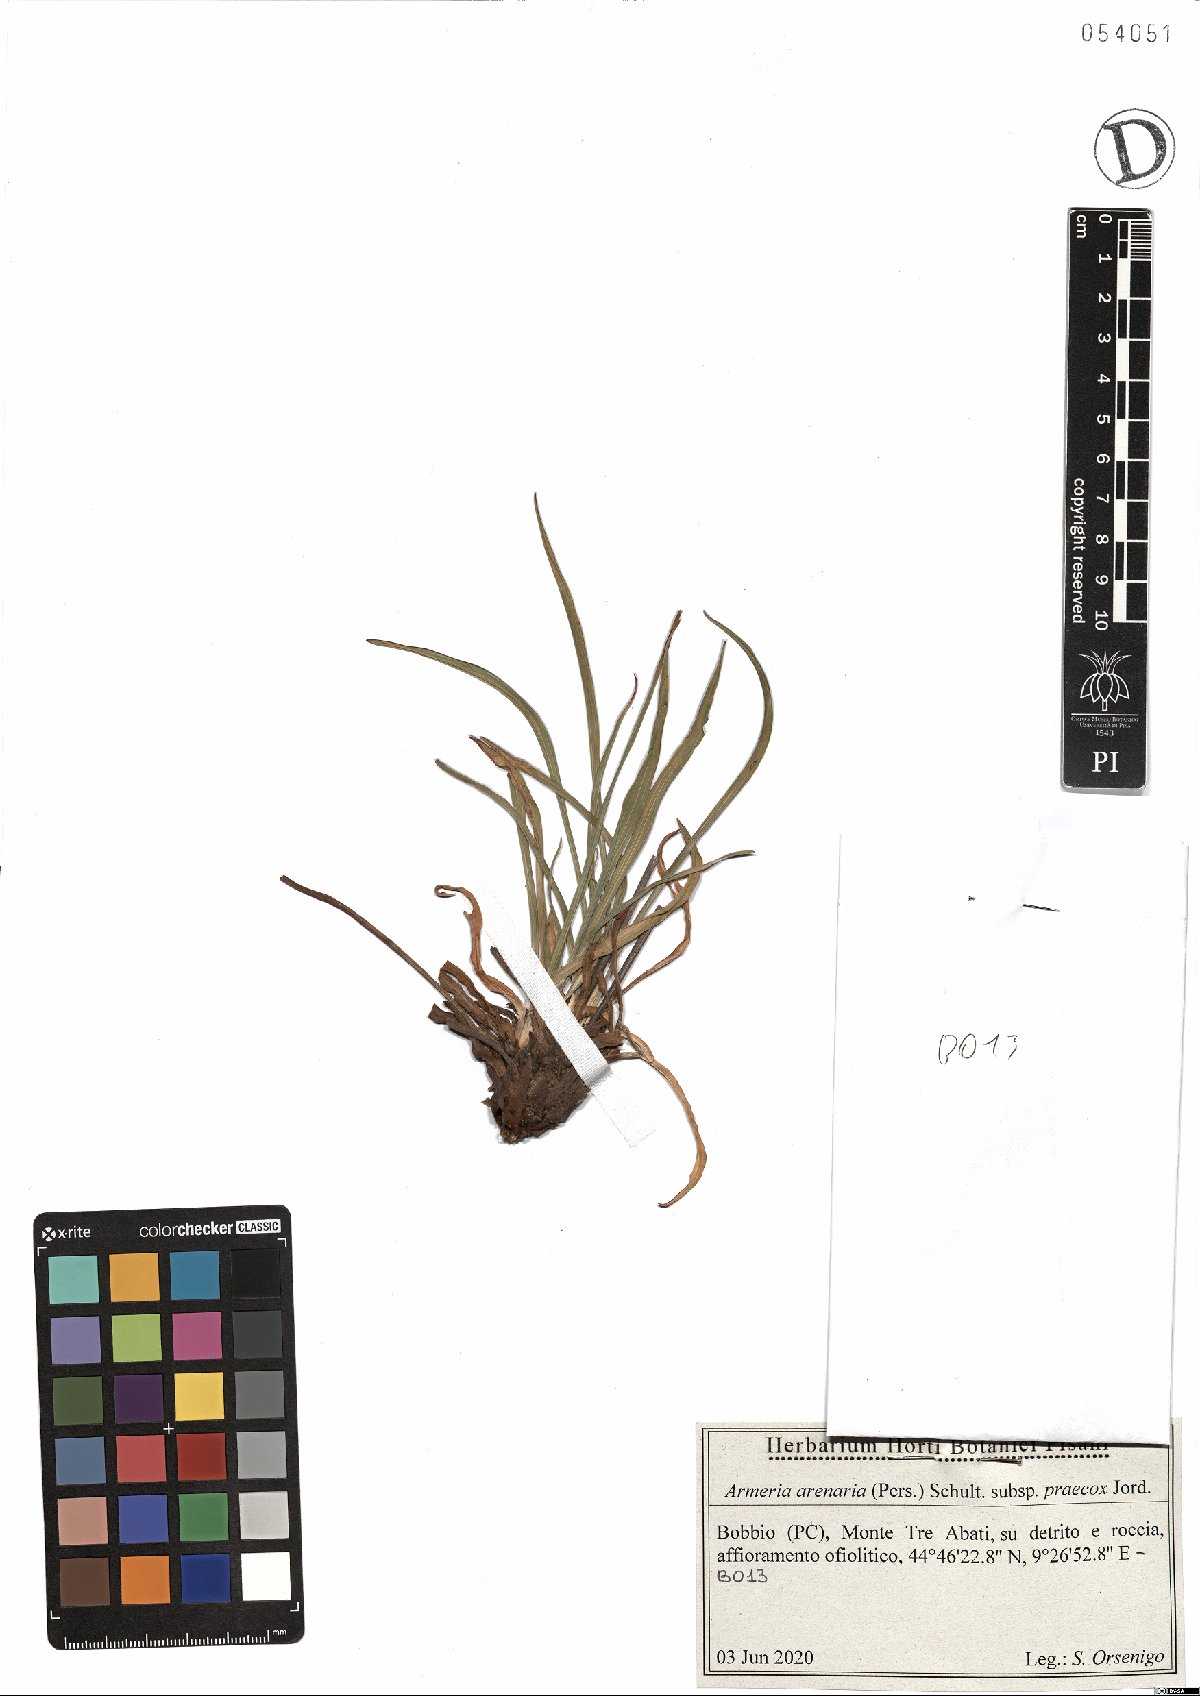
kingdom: Plantae
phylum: Tracheophyta
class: Magnoliopsida
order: Caryophyllales
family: Plumbaginaceae
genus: Armeria
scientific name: Armeria arenaria
